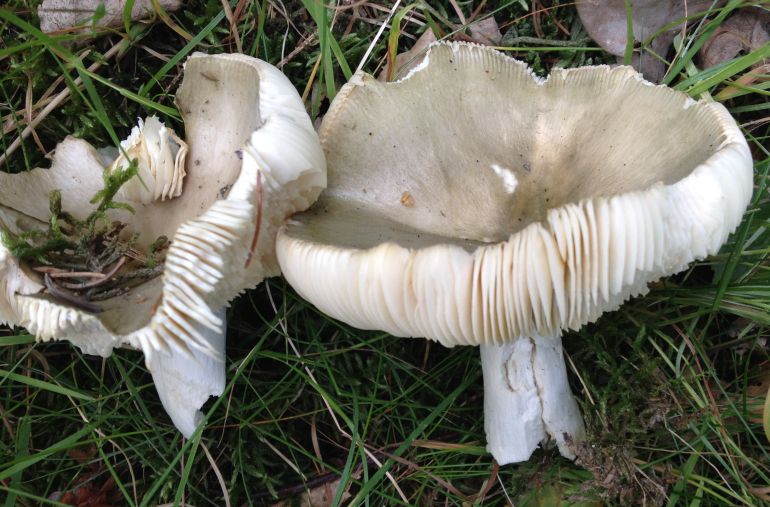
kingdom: Fungi
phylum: Basidiomycota
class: Agaricomycetes
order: Russulales
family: Russulaceae
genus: Russula
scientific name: Russula aeruginea
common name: græsgrøn skørhat
